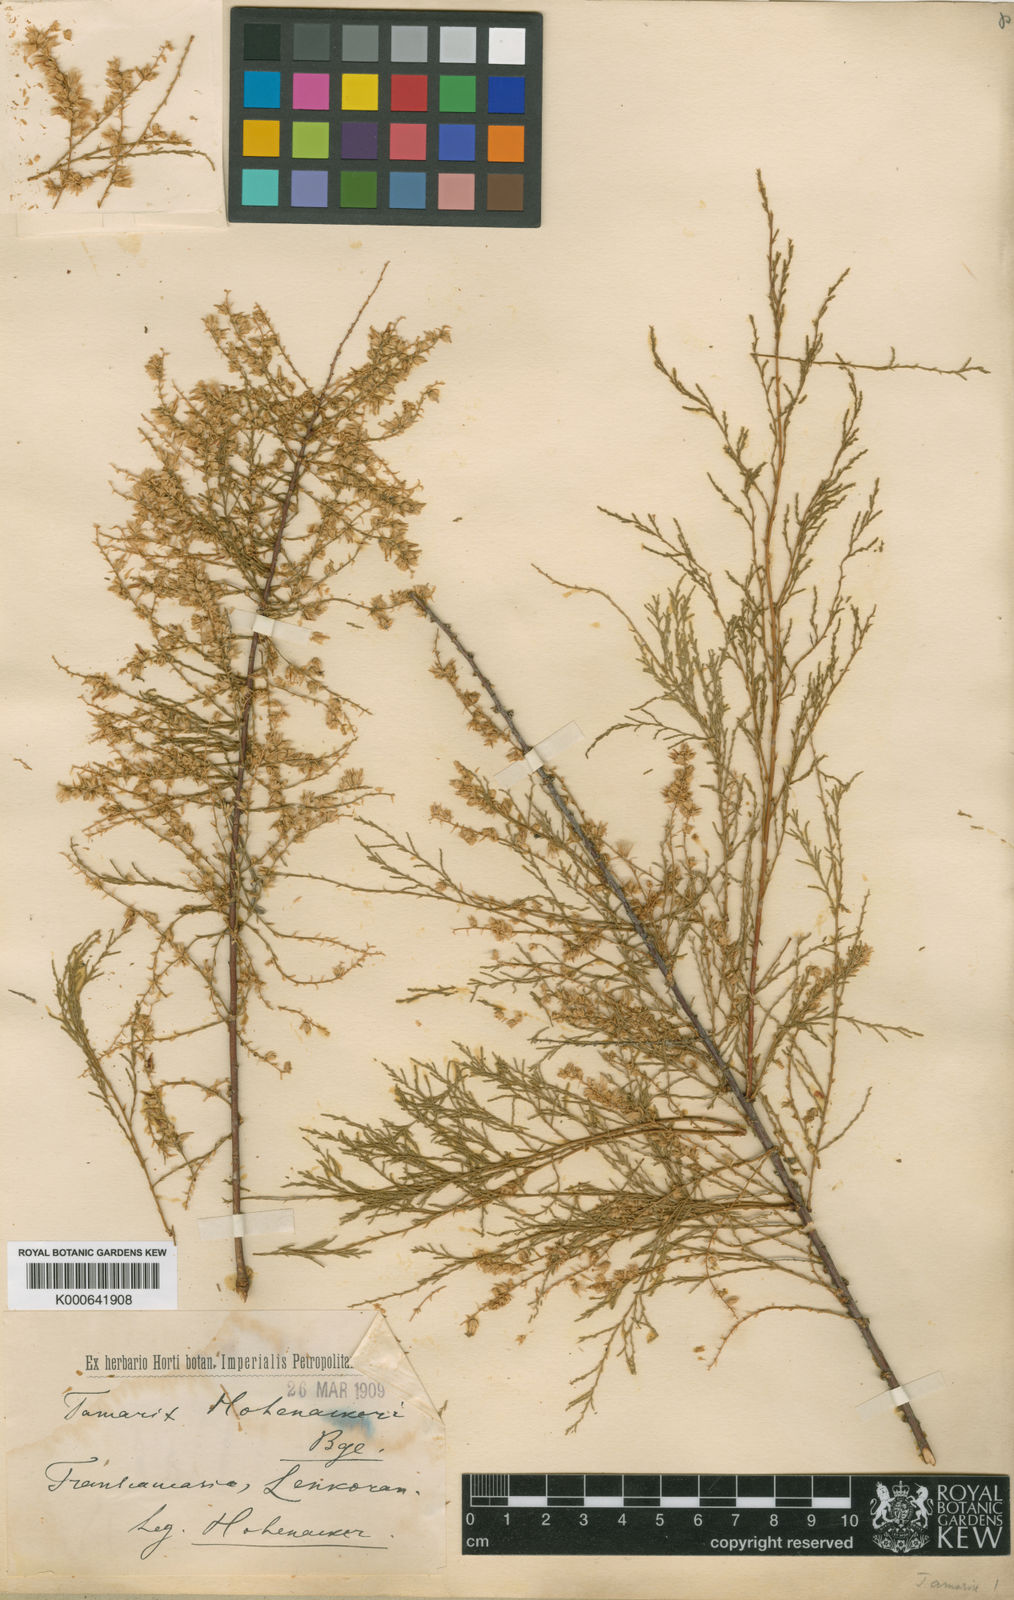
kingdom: Plantae
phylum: Tracheophyta
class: Magnoliopsida
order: Caryophyllales
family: Tamaricaceae
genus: Tamarix
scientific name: Tamarix hohenackeri
